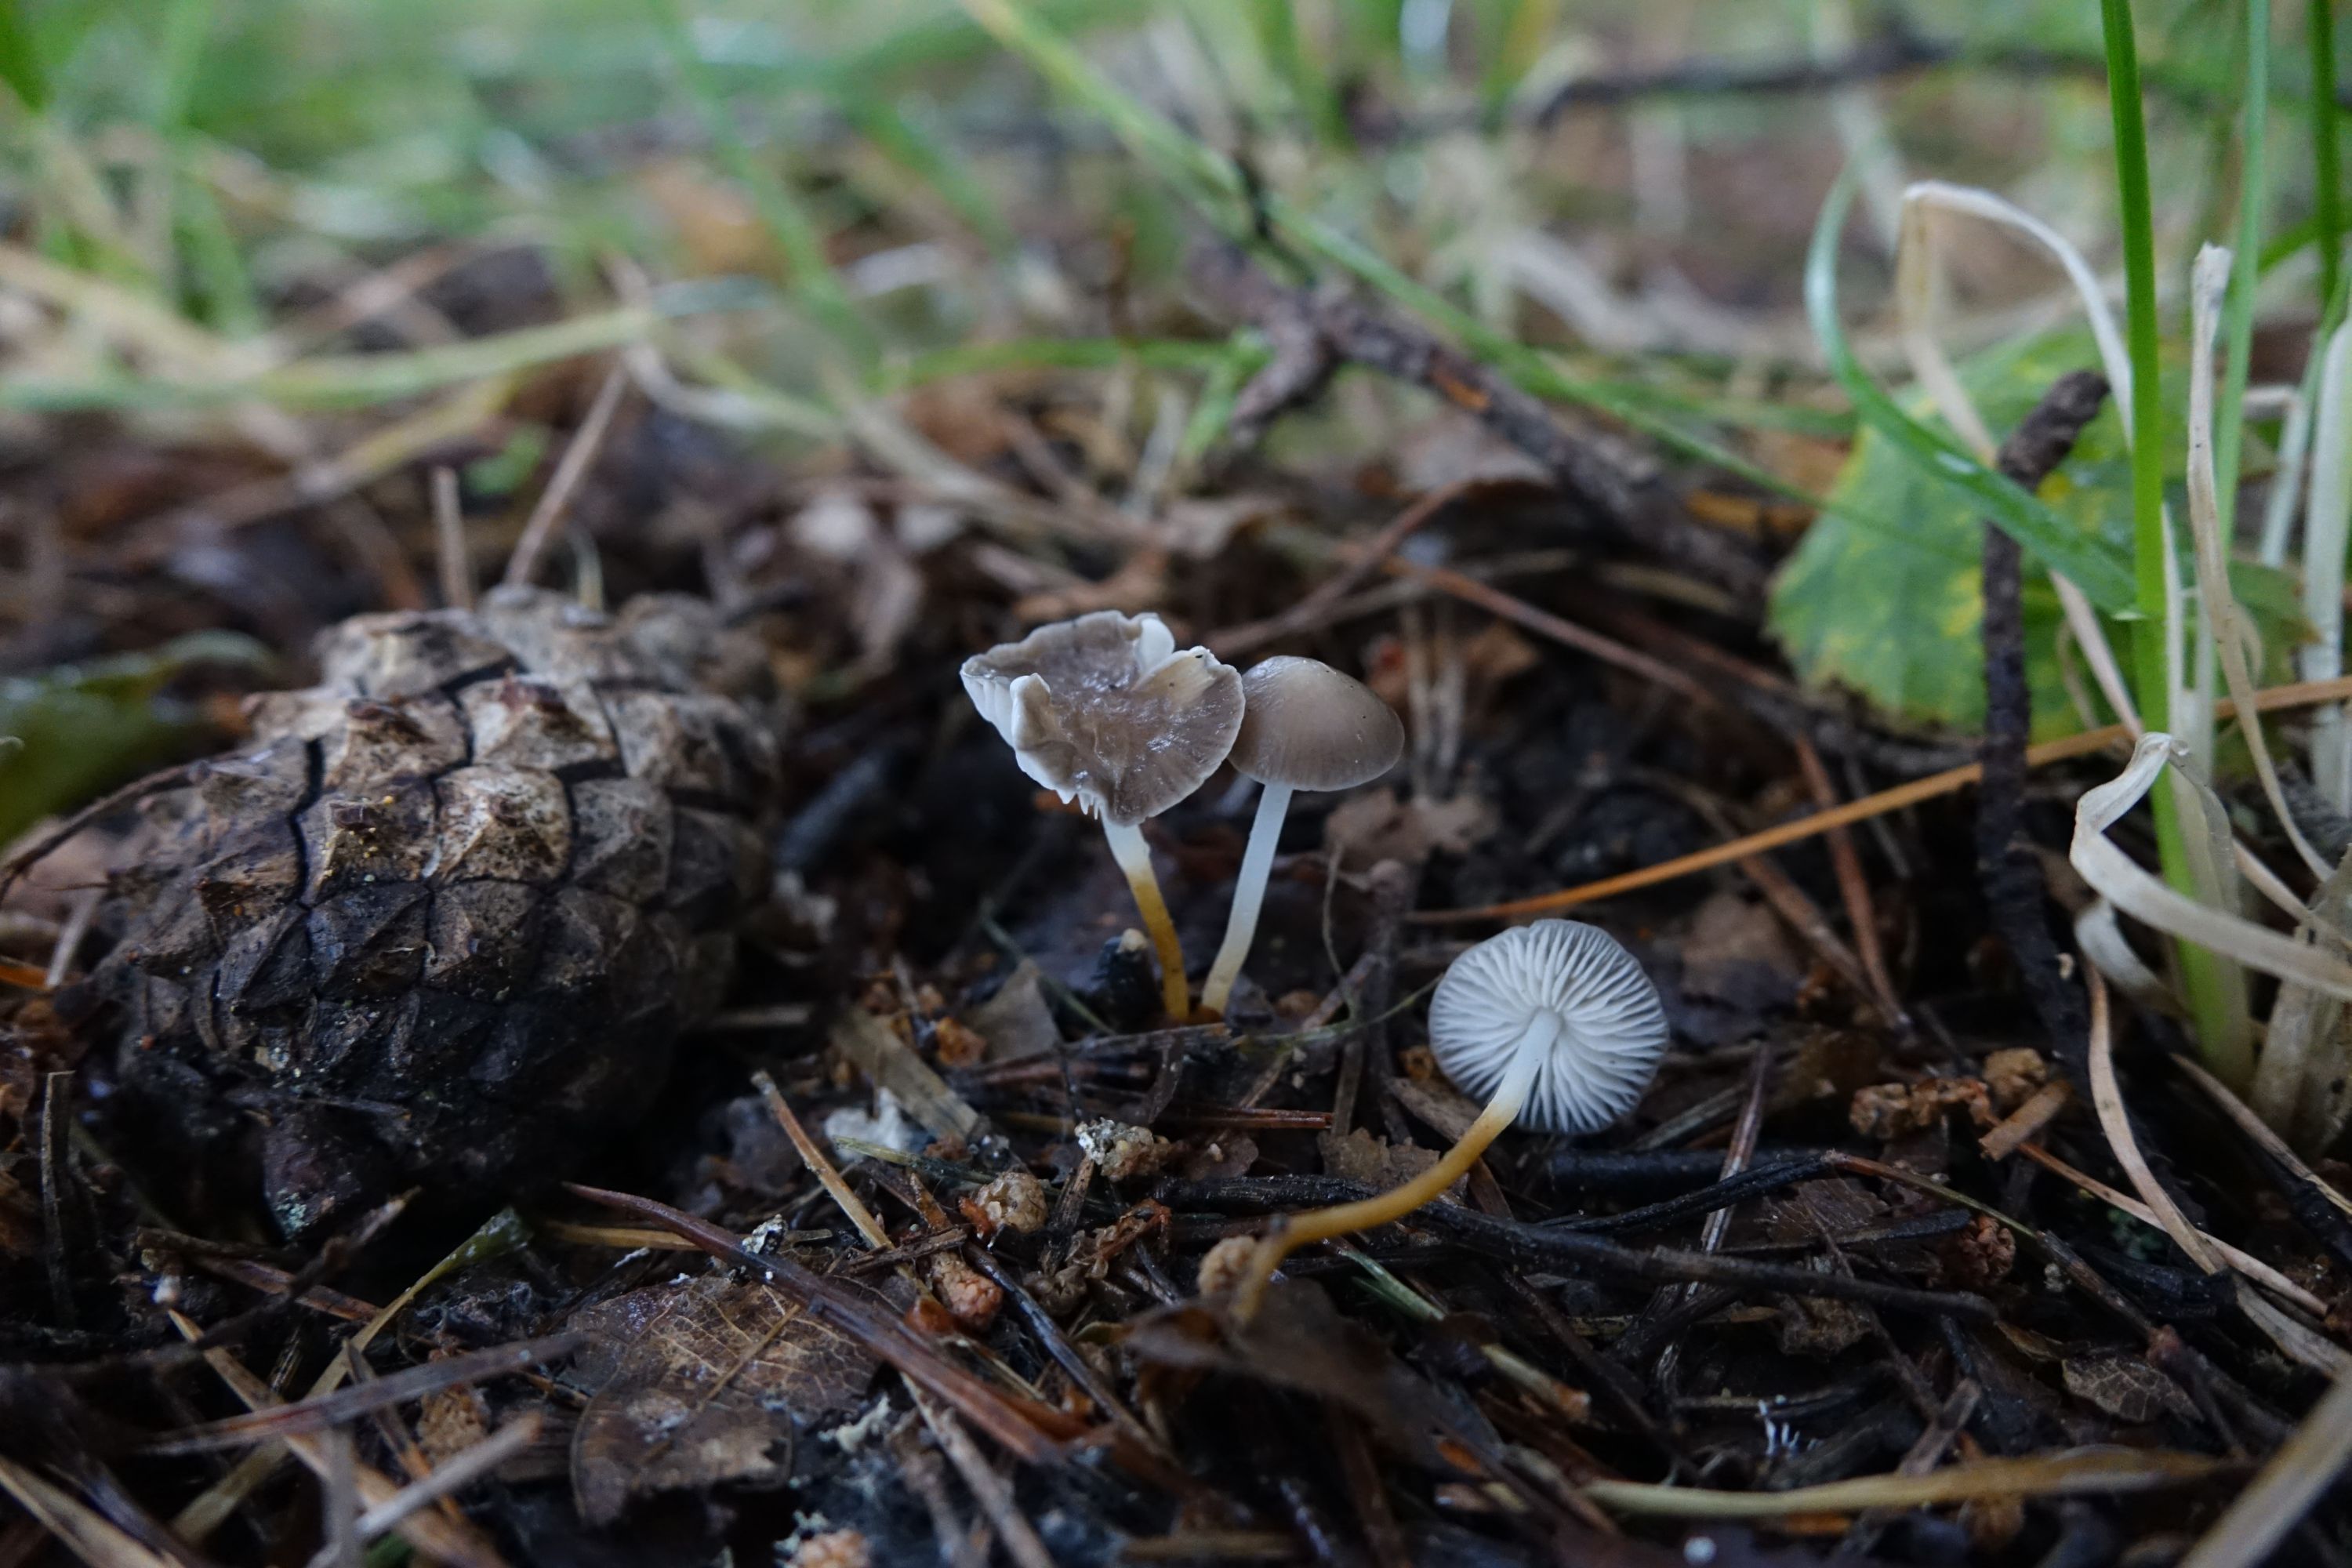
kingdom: Fungi
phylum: Basidiomycota
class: Agaricomycetes
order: Agaricales
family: Physalacriaceae
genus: Strobilurus
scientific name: Strobilurus tenacellus
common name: Pinecone cap
